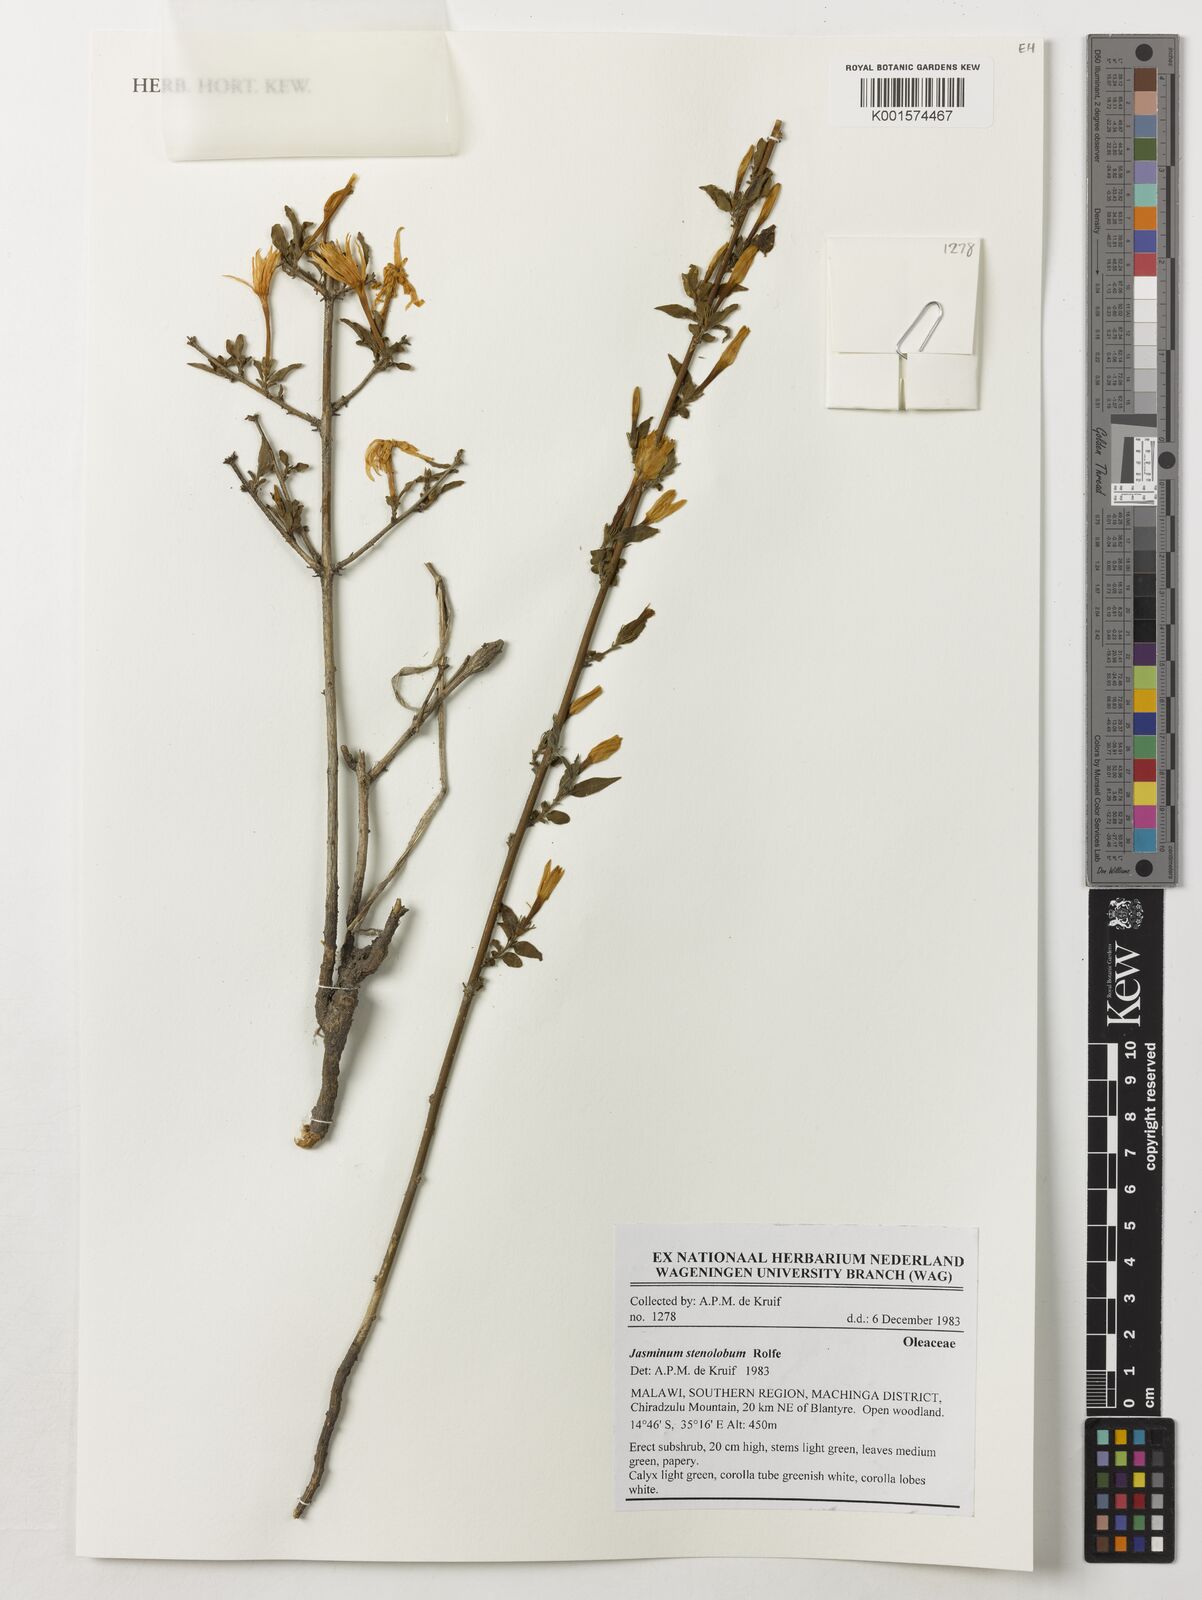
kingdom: Plantae
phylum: Tracheophyta
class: Magnoliopsida
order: Lamiales
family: Oleaceae
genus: Jasminum
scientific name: Jasminum stenolobum
